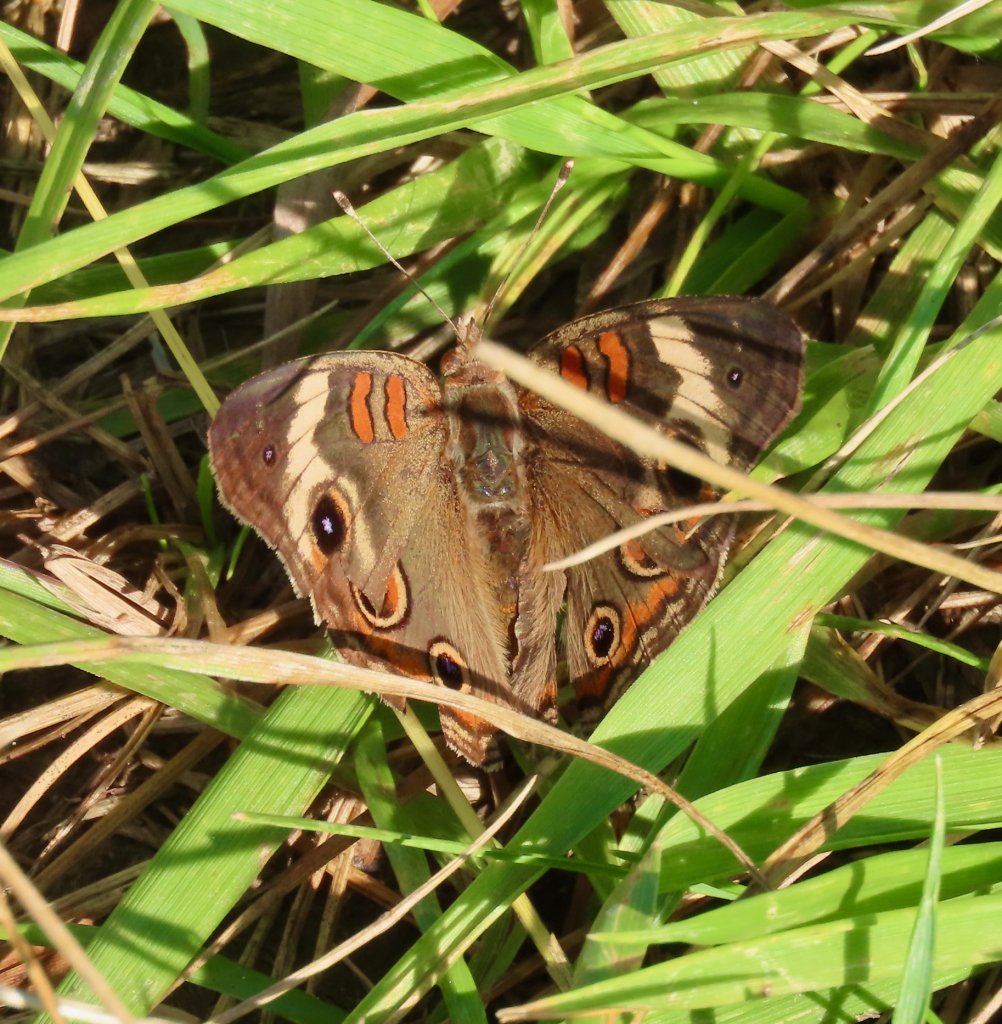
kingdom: Animalia
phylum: Arthropoda
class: Insecta
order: Lepidoptera
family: Nymphalidae
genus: Junonia
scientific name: Junonia coenia
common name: Common Buckeye
